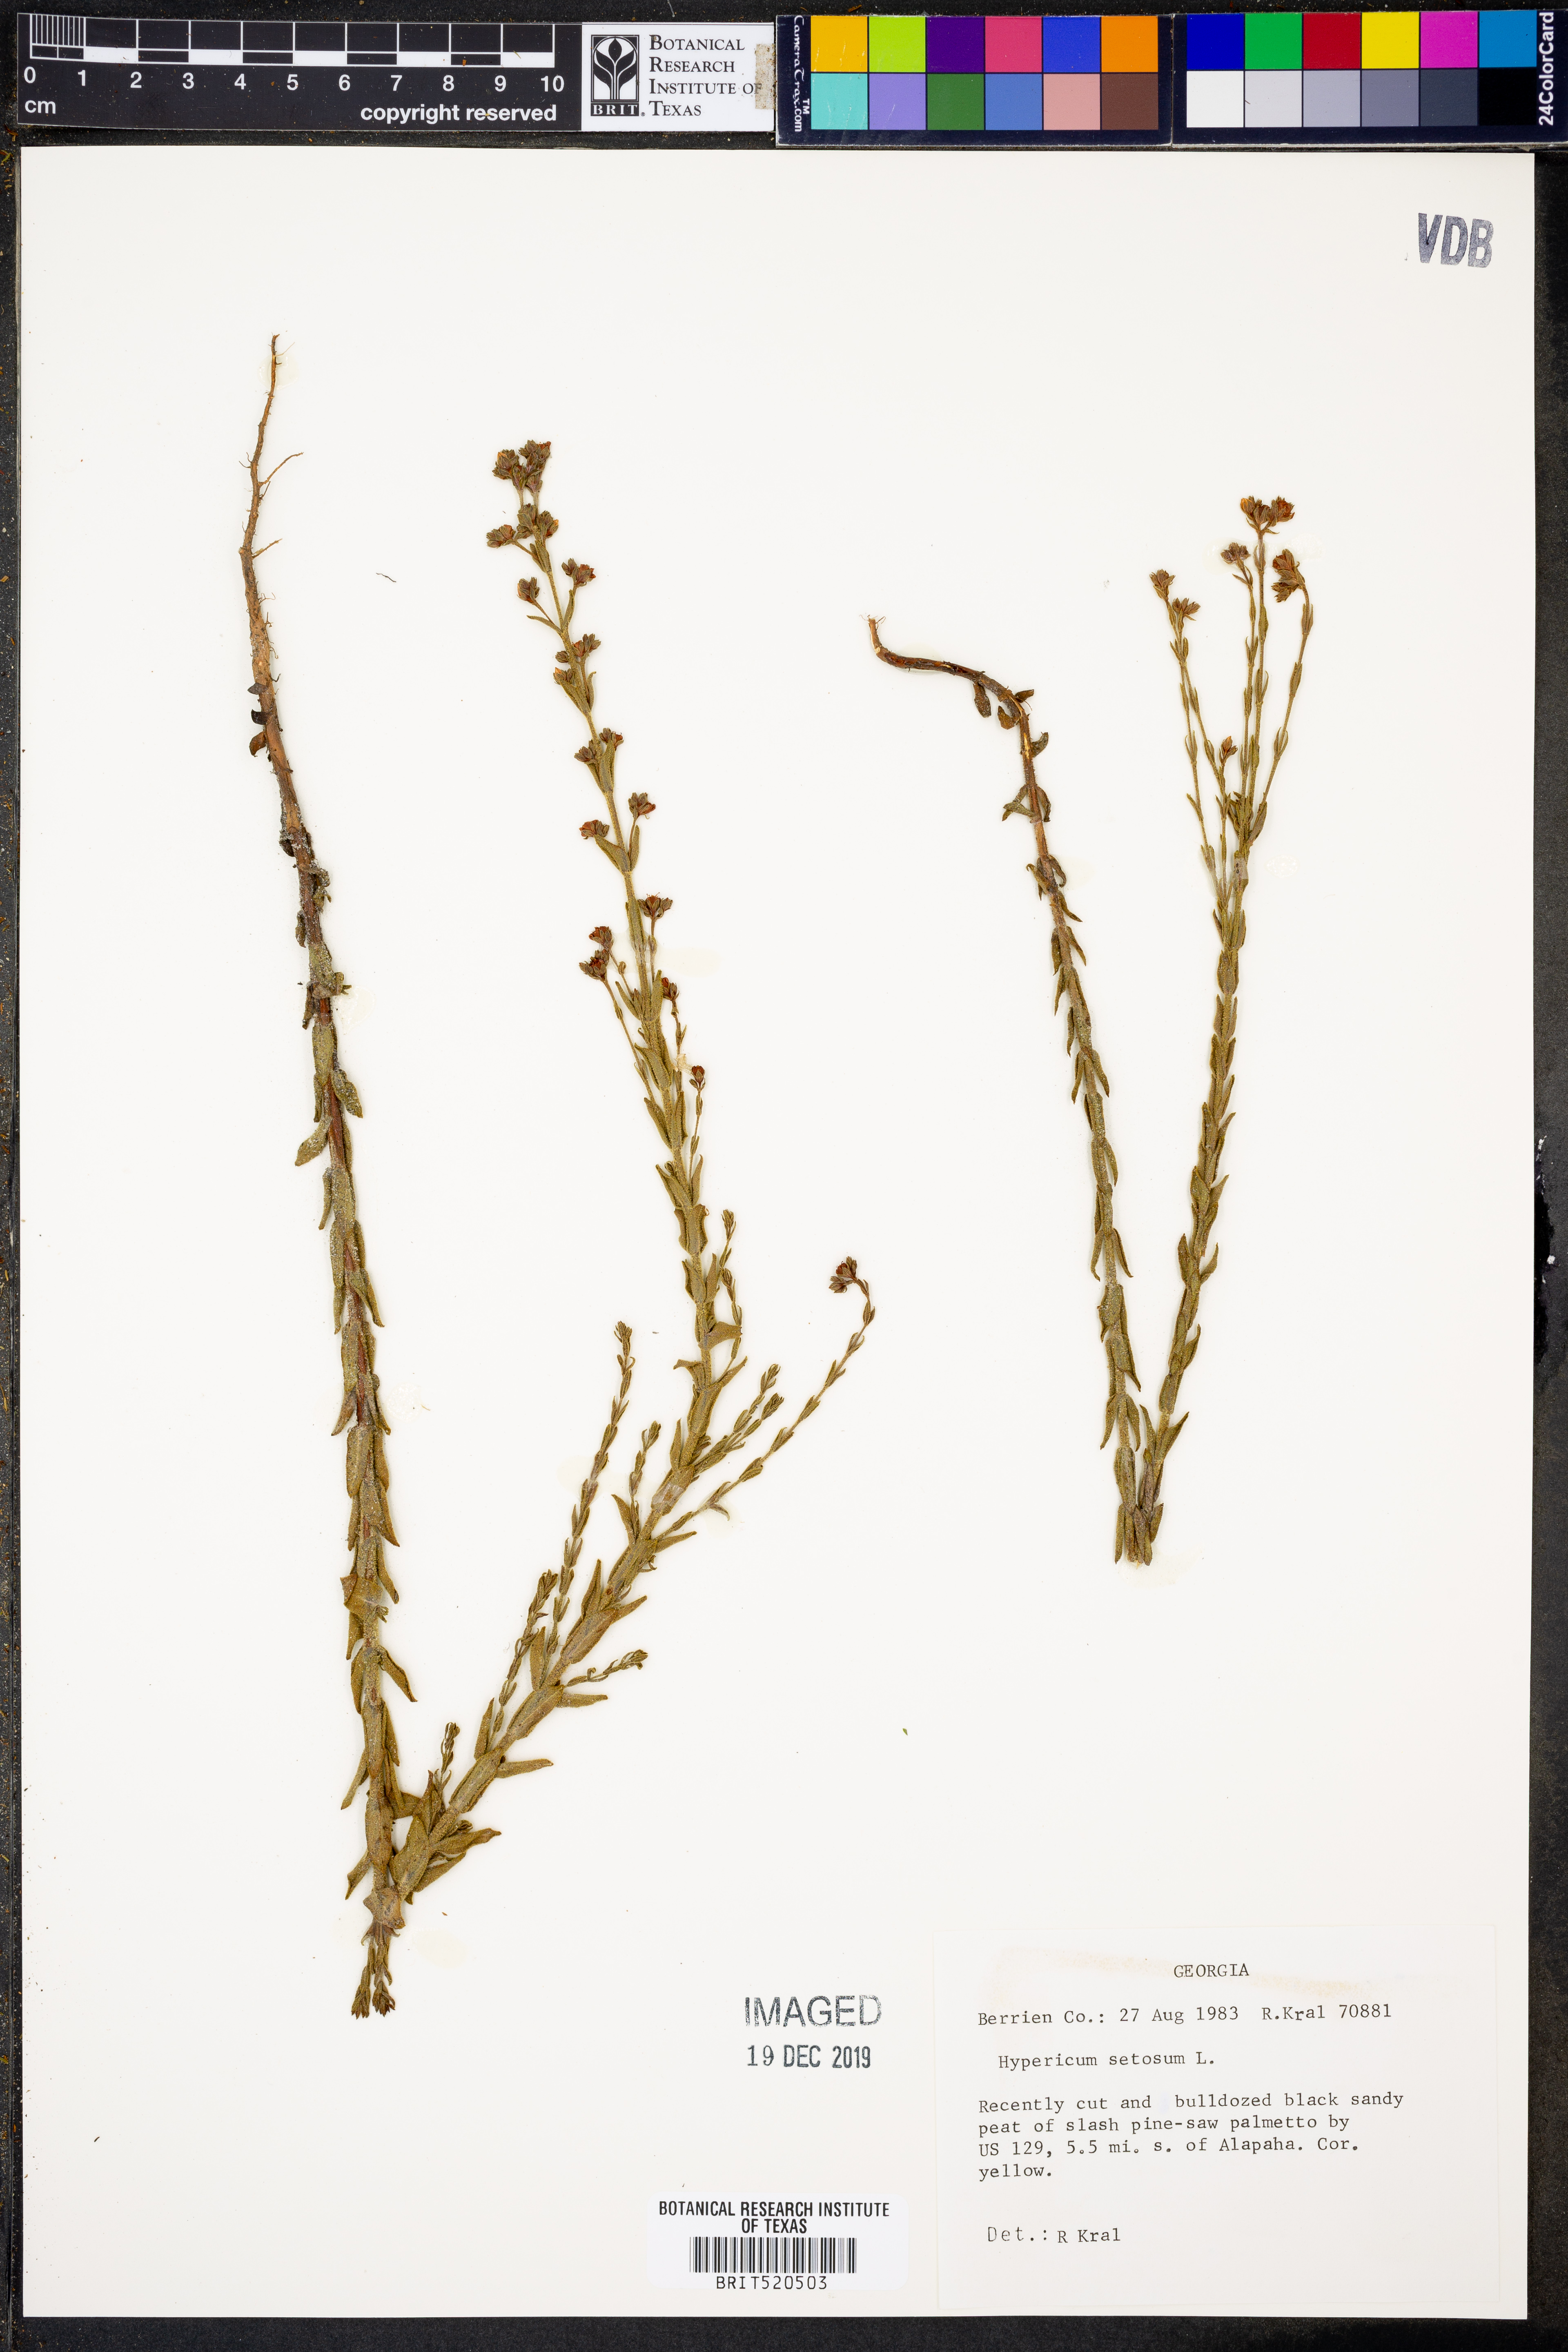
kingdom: Plantae
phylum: Tracheophyta
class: Magnoliopsida
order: Malpighiales
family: Hypericaceae
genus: Hypericum
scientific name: Hypericum setosum
